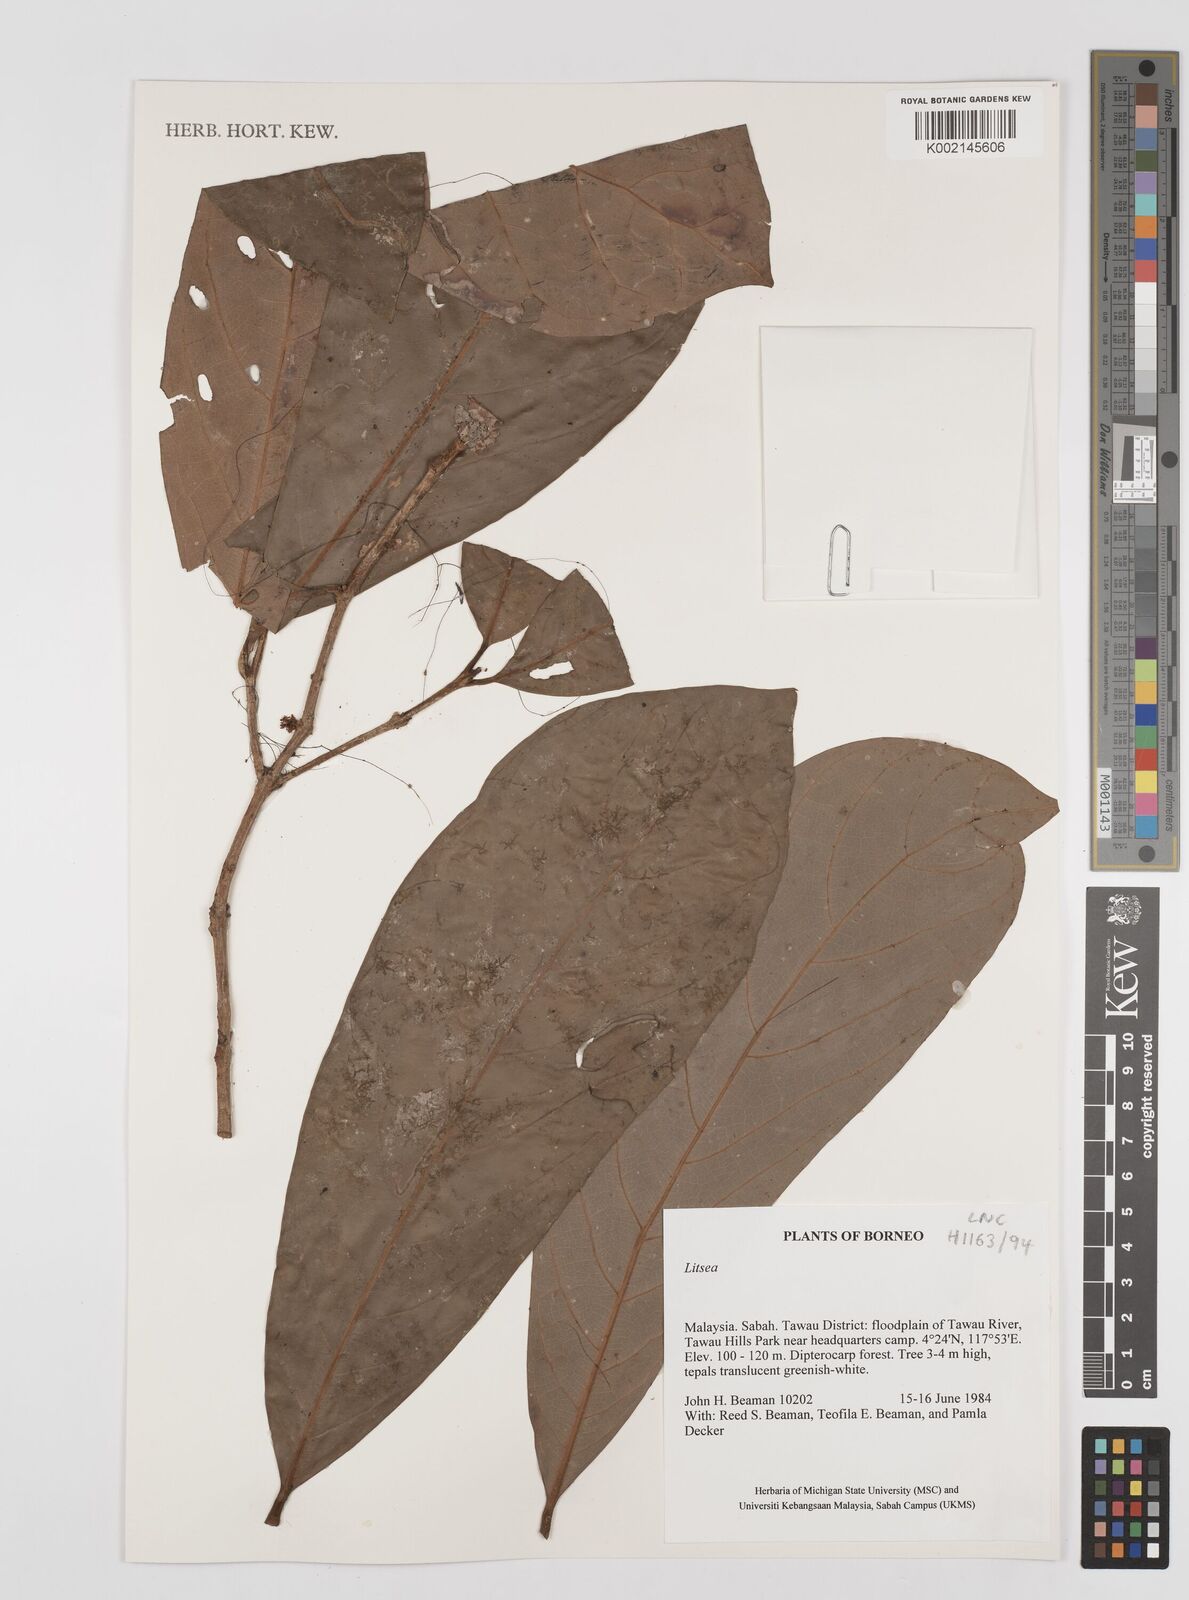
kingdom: Plantae
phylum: Tracheophyta
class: Magnoliopsida
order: Laurales
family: Lauraceae
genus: Litsea
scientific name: Litsea
